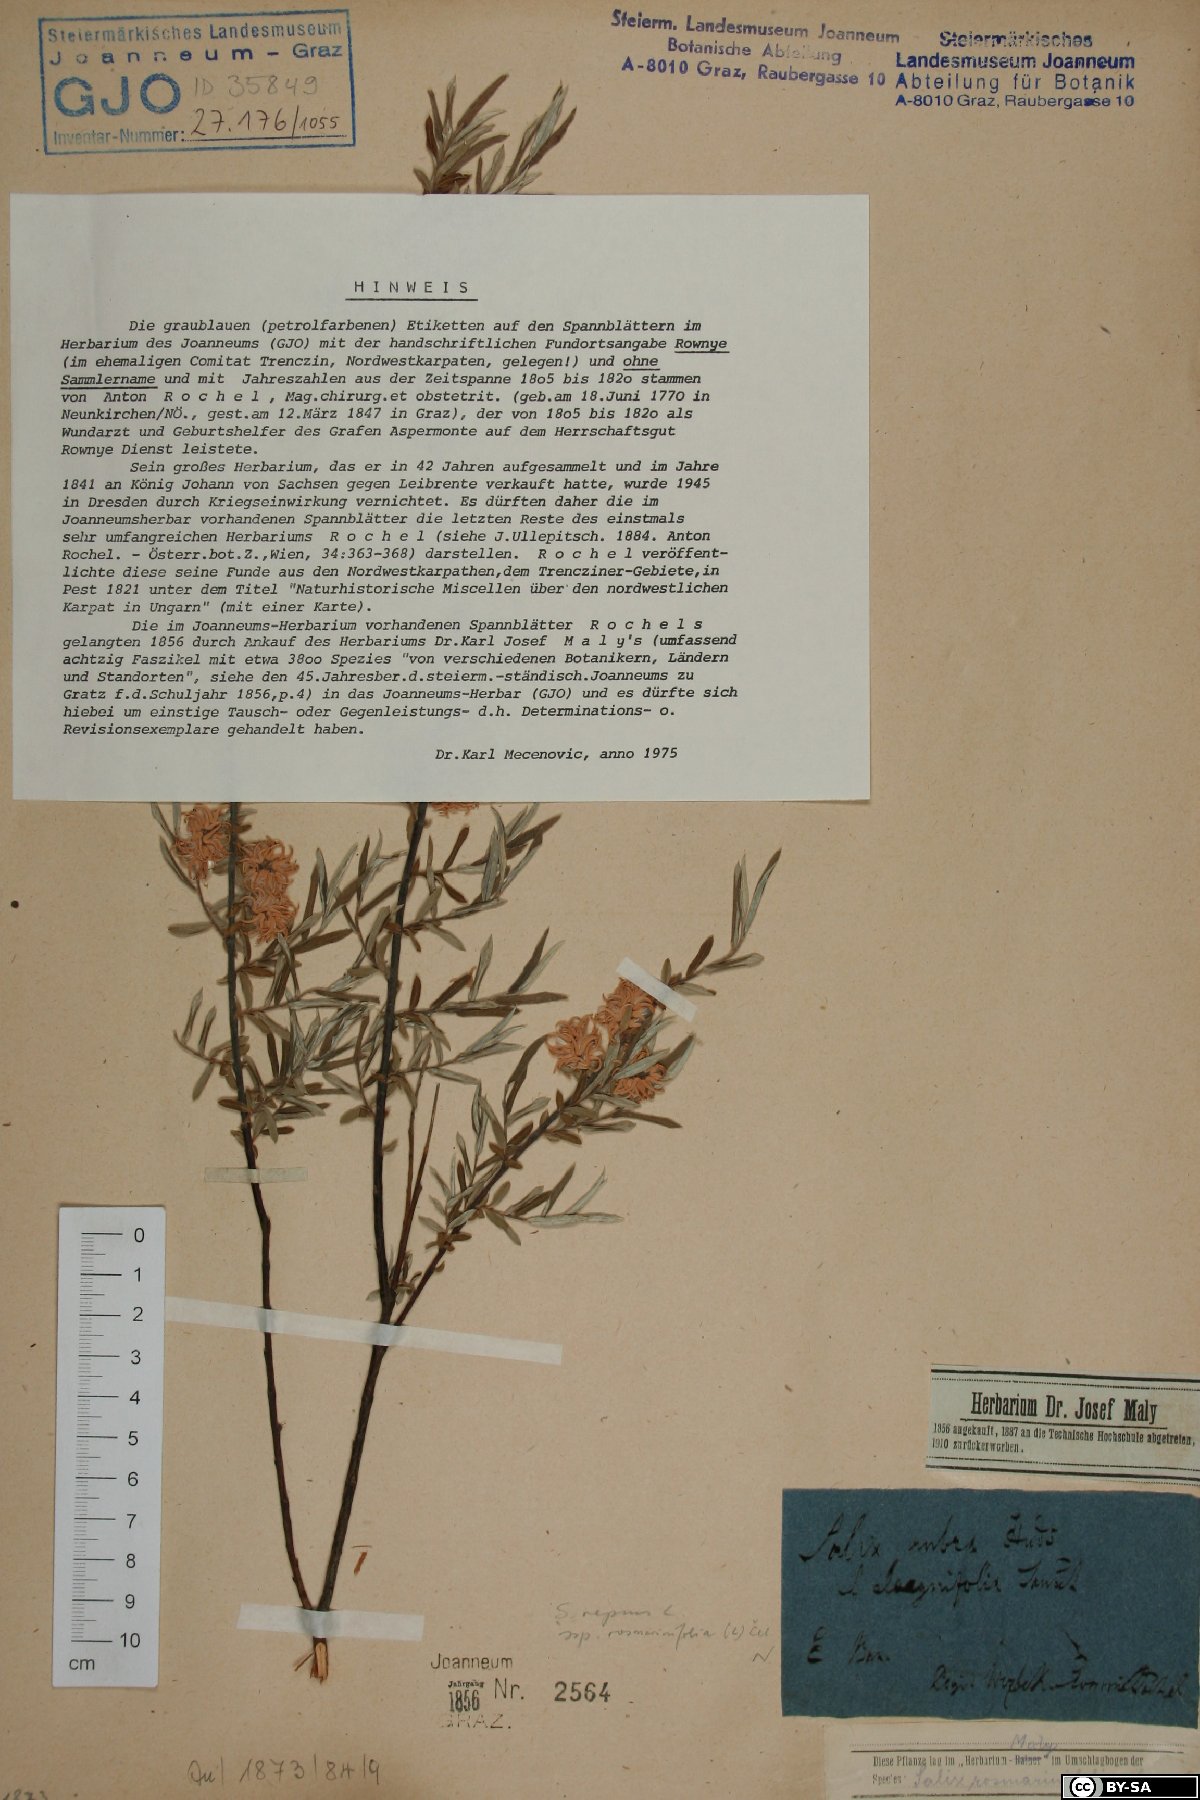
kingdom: Plantae
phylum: Tracheophyta
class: Magnoliopsida
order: Malpighiales
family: Salicaceae
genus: Salix
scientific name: Salix repens
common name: Creeping willow
